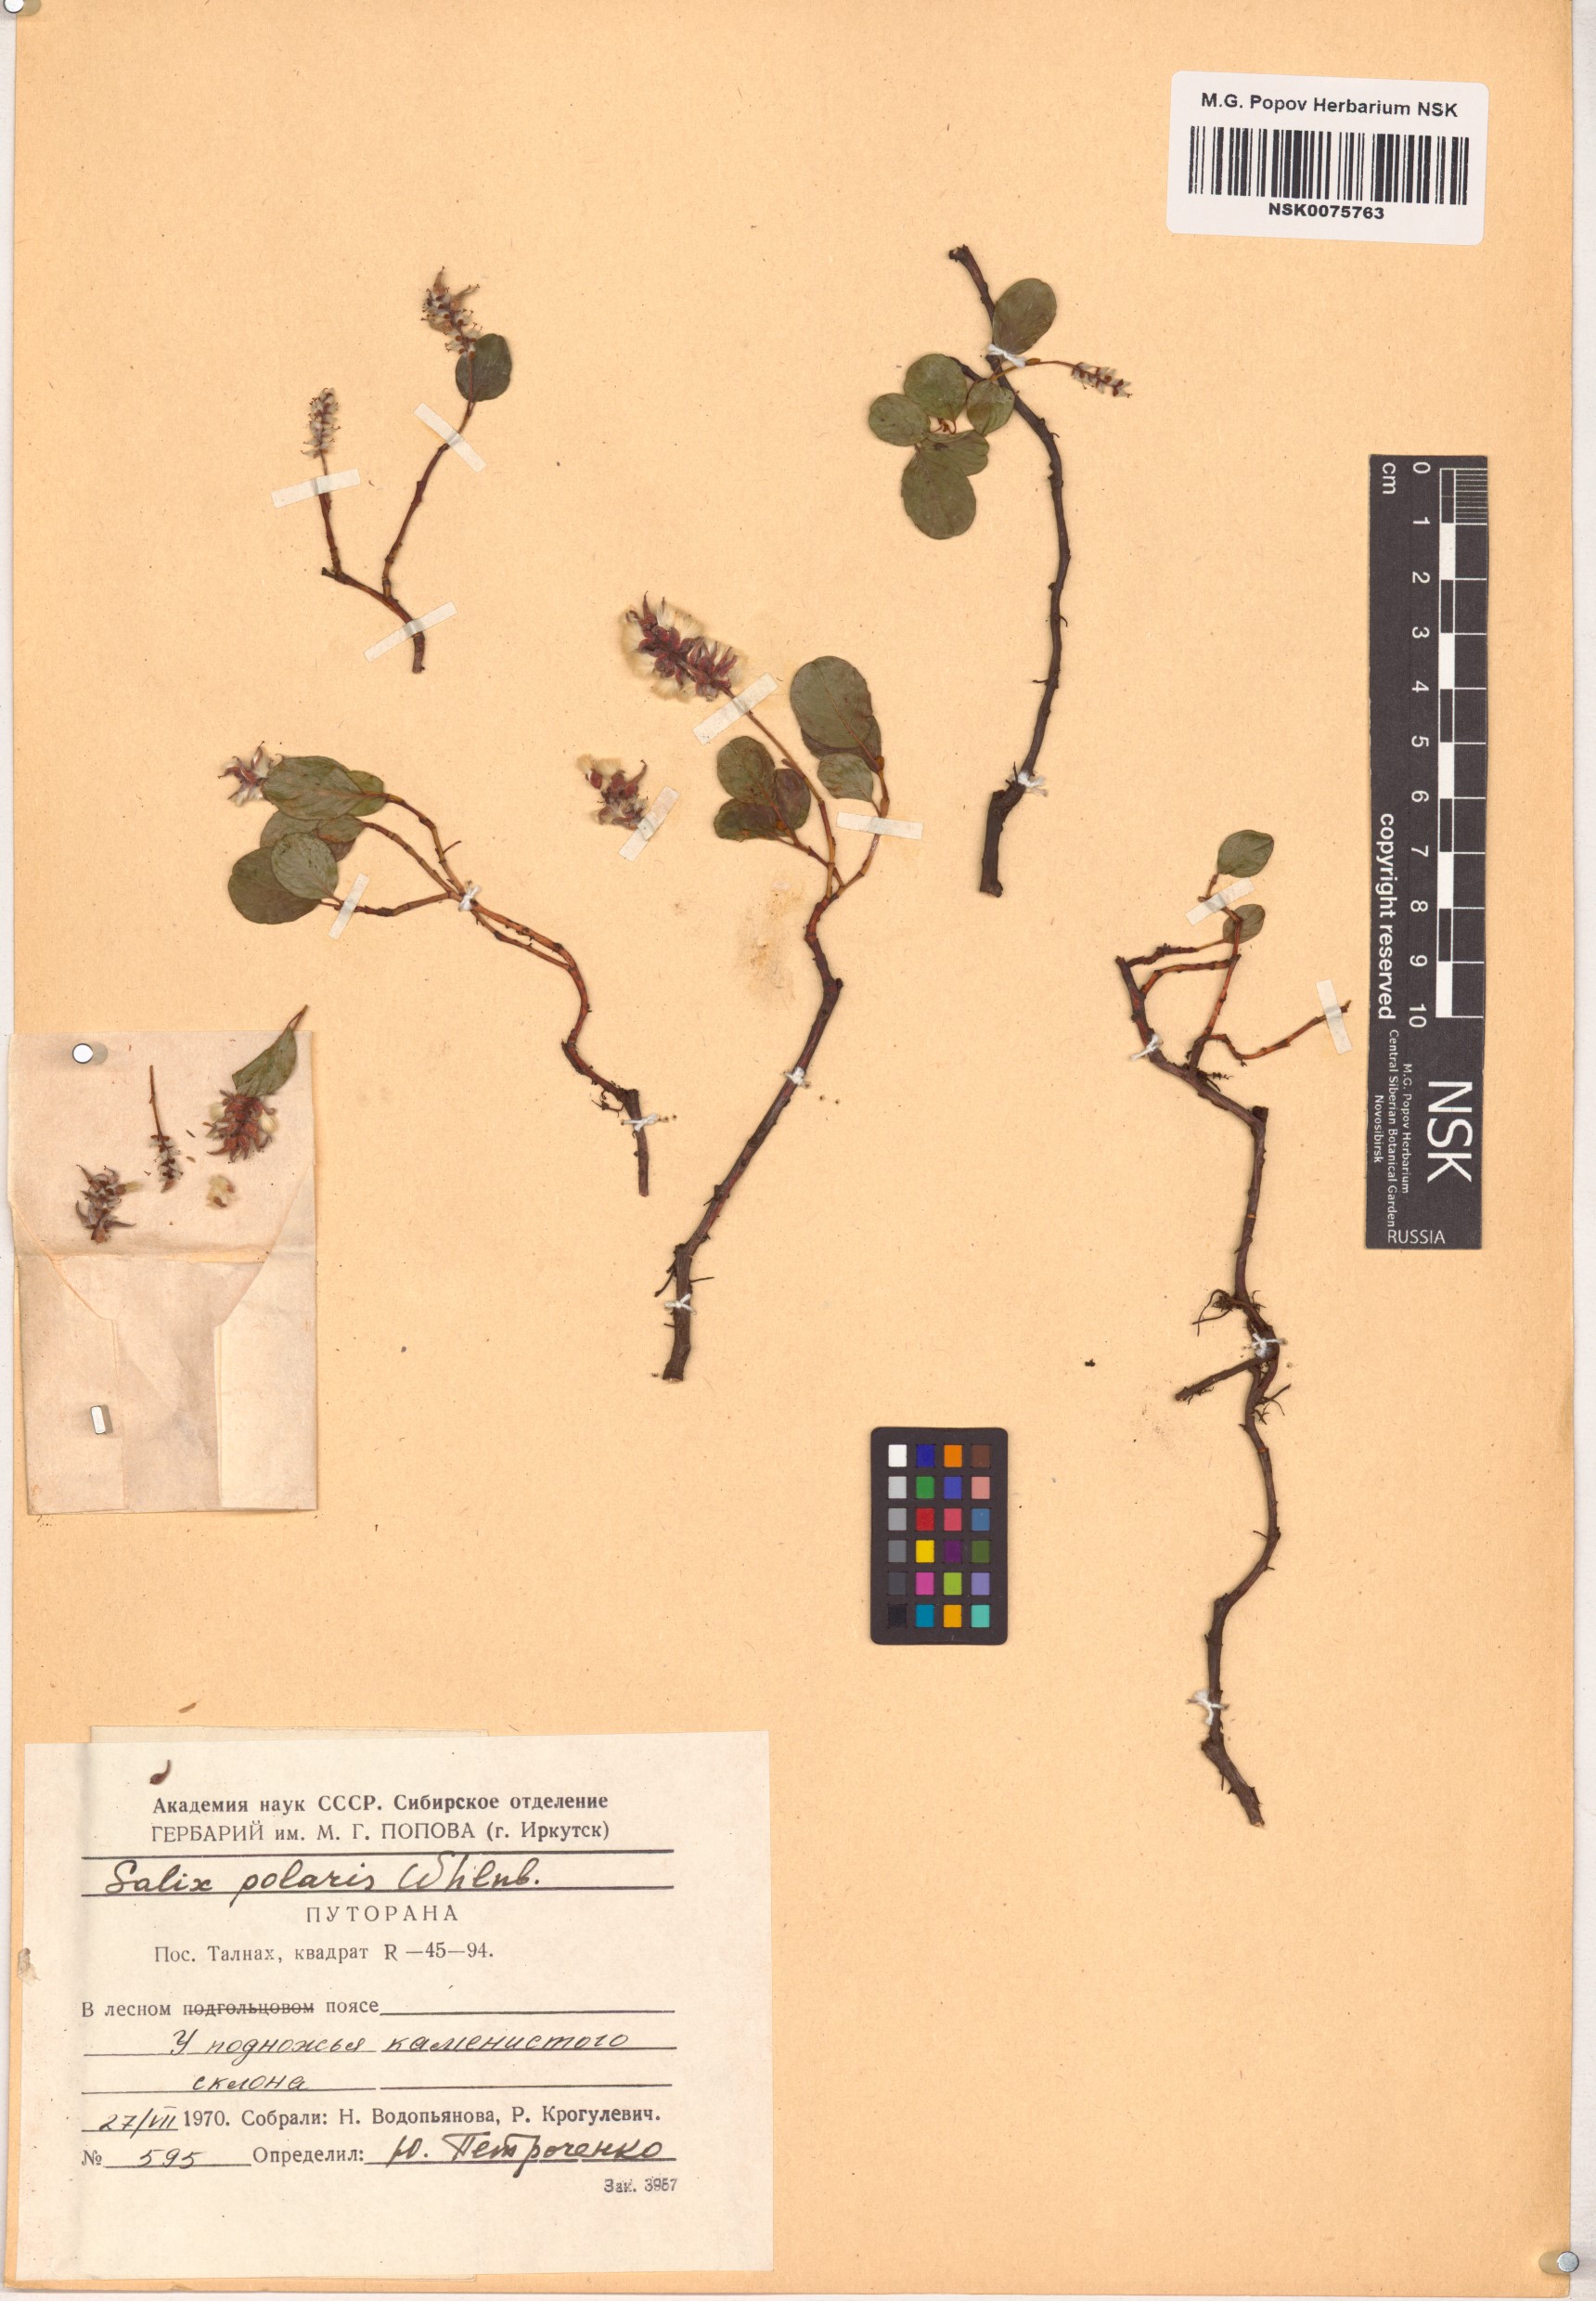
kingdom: Plantae
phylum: Tracheophyta
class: Magnoliopsida
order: Malpighiales
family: Salicaceae
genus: Salix
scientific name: Salix polaris
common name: Polar willow
